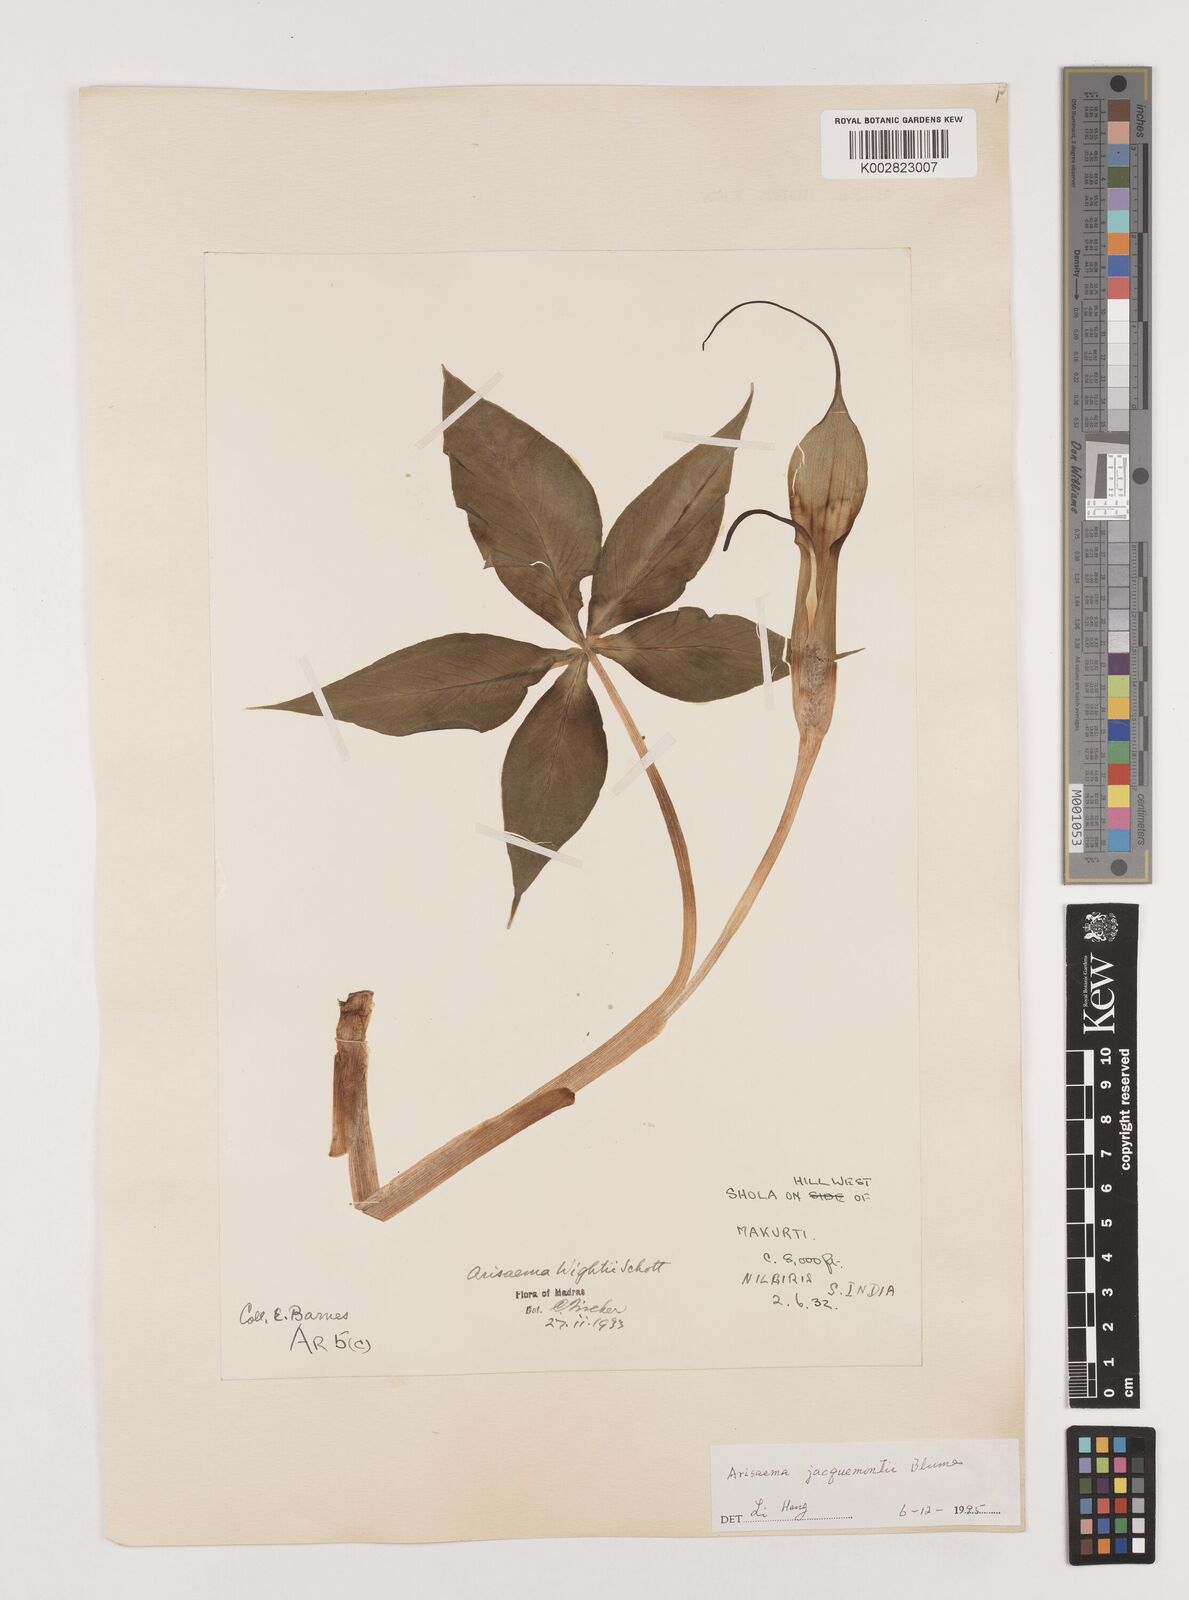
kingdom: Plantae
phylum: Tracheophyta
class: Liliopsida
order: Alismatales
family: Araceae
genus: Arisaema
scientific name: Arisaema jacquemontii
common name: Jacquemont's cobra-lily
